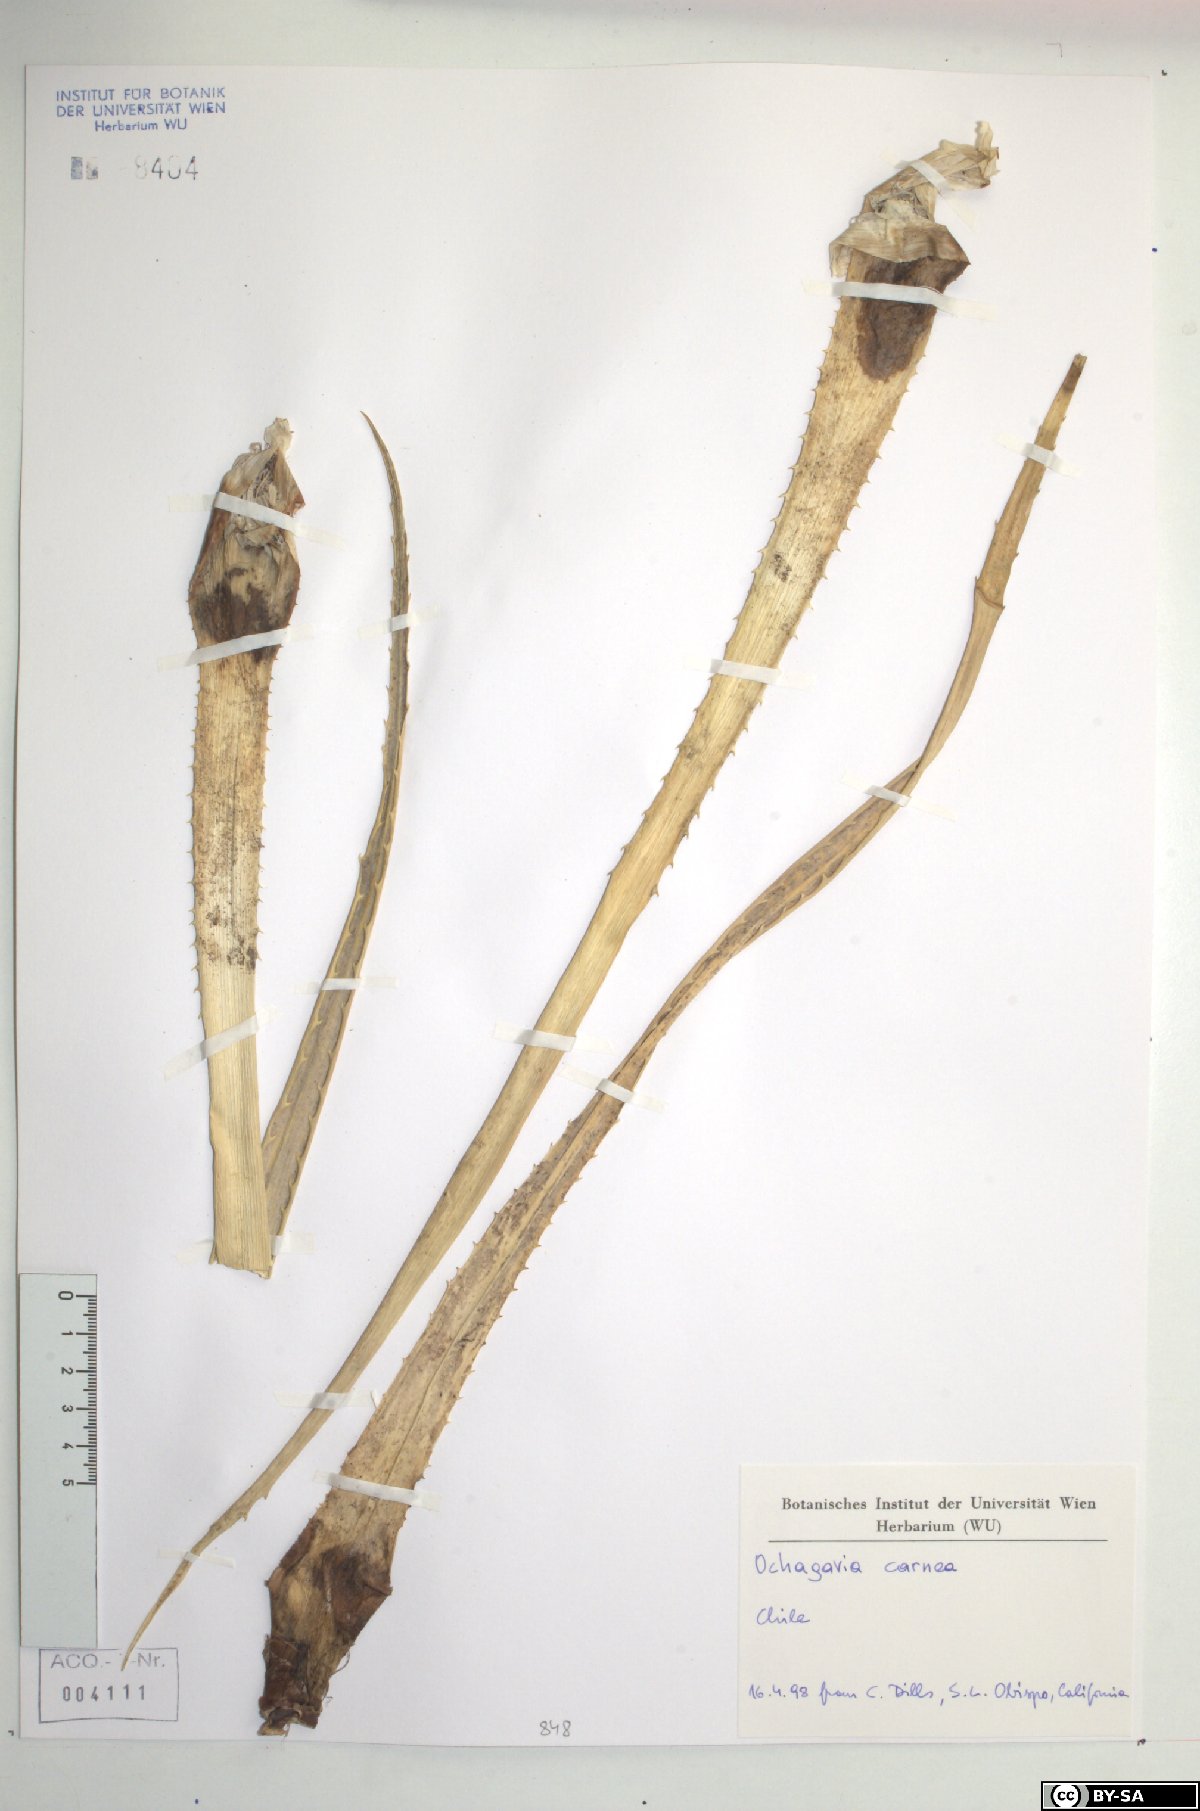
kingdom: Plantae
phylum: Tracheophyta
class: Liliopsida
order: Poales
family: Bromeliaceae
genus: Ochagavia
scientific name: Ochagavia carnea
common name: Tresco rhodostachys
